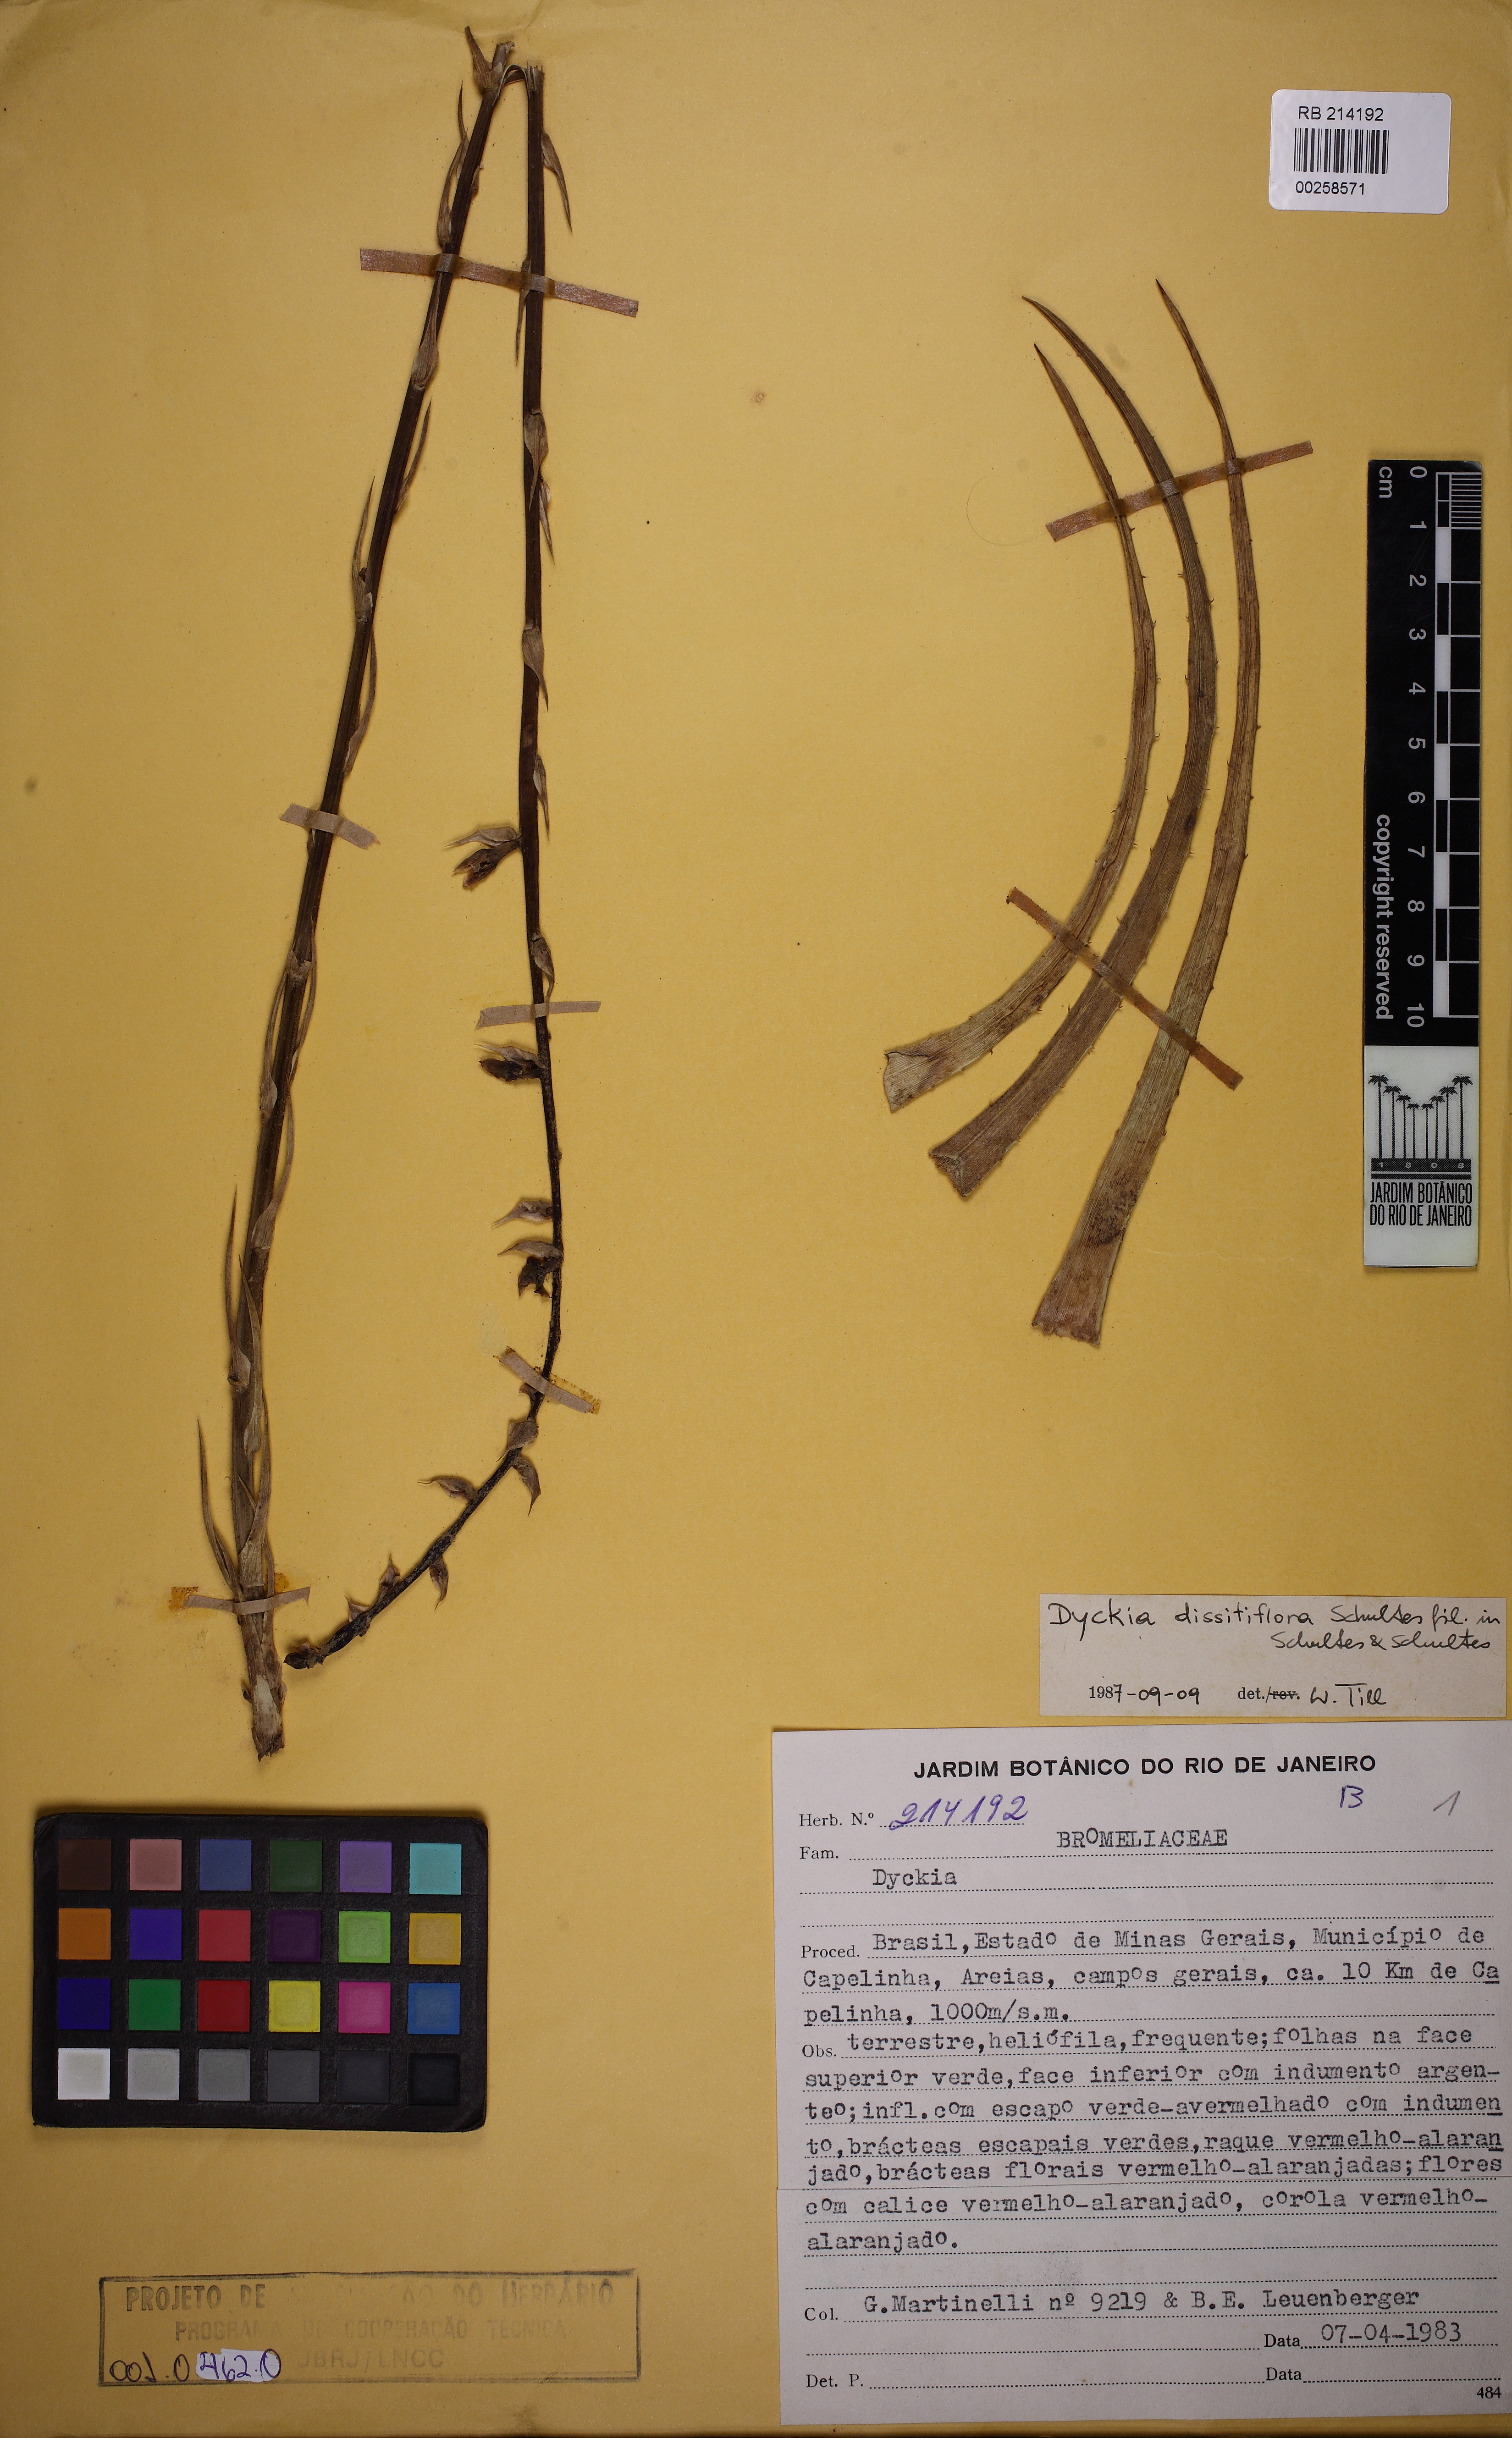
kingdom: Plantae
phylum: Tracheophyta
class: Liliopsida
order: Poales
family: Bromeliaceae
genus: Dyckia
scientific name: Dyckia dissitiflora
